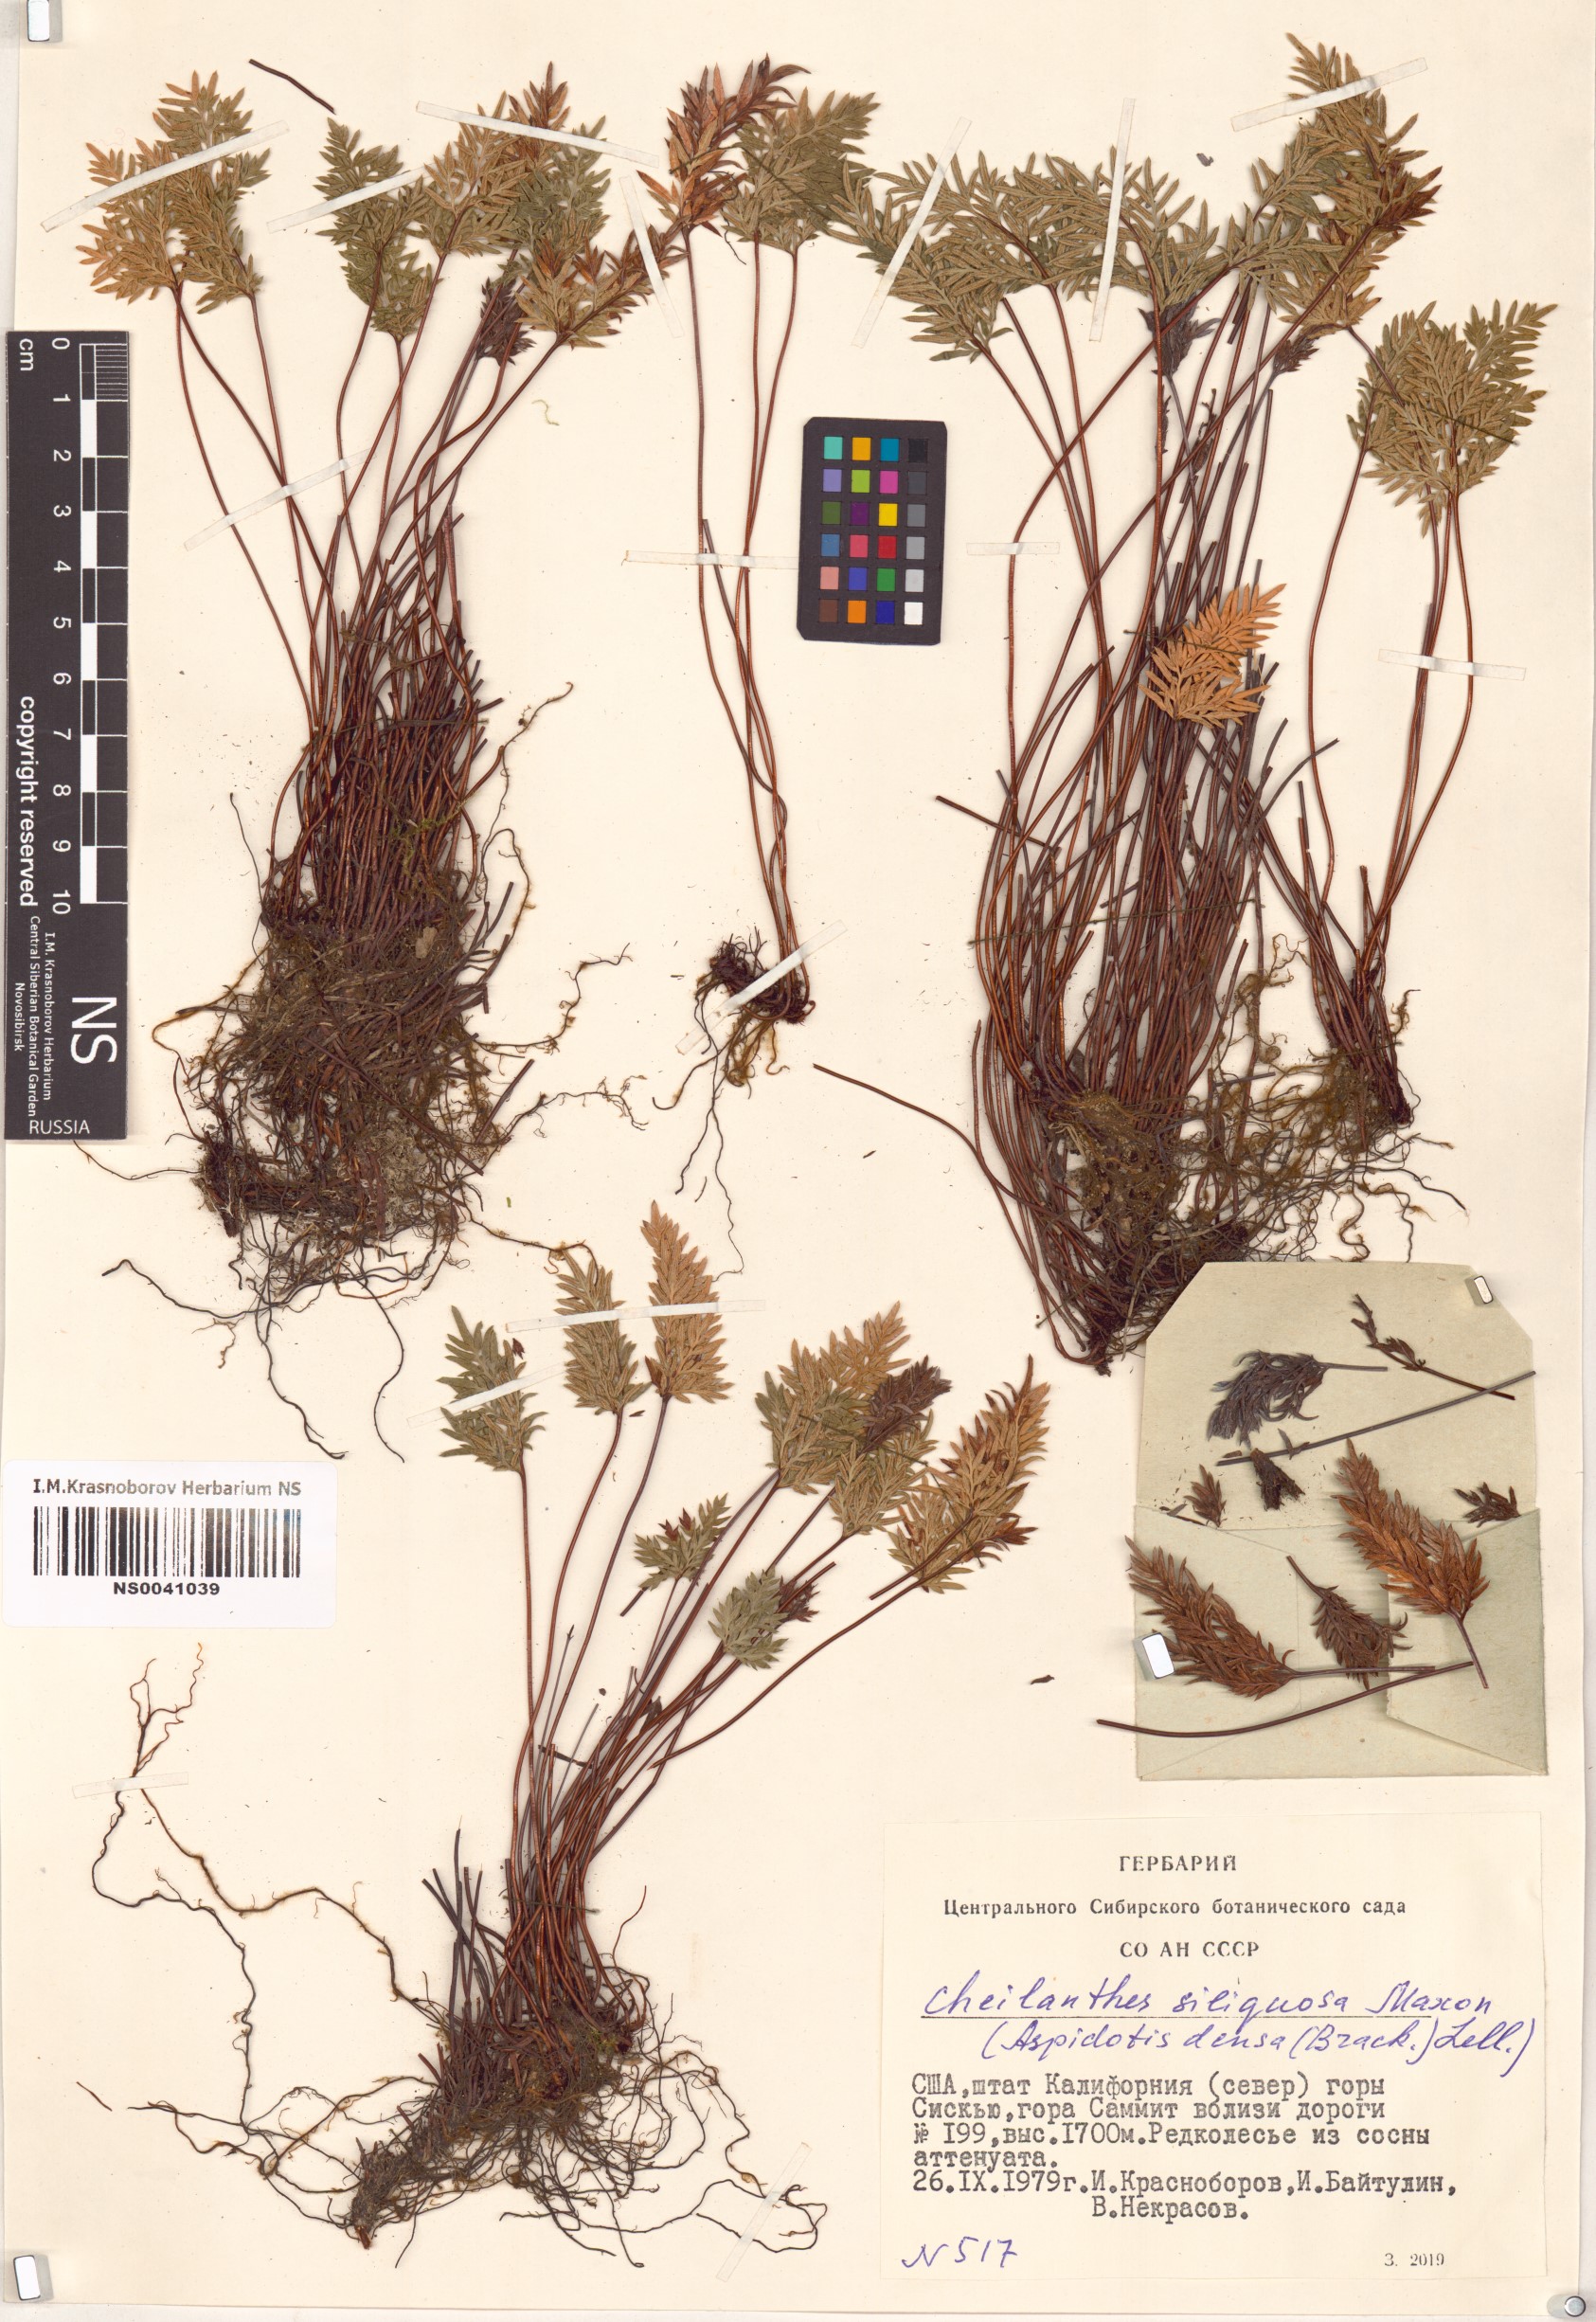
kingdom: Plantae
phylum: Tracheophyta
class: Polypodiopsida
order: Polypodiales
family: Pteridaceae
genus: Aspidotis
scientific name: Aspidotis densa
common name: Indian's dream
